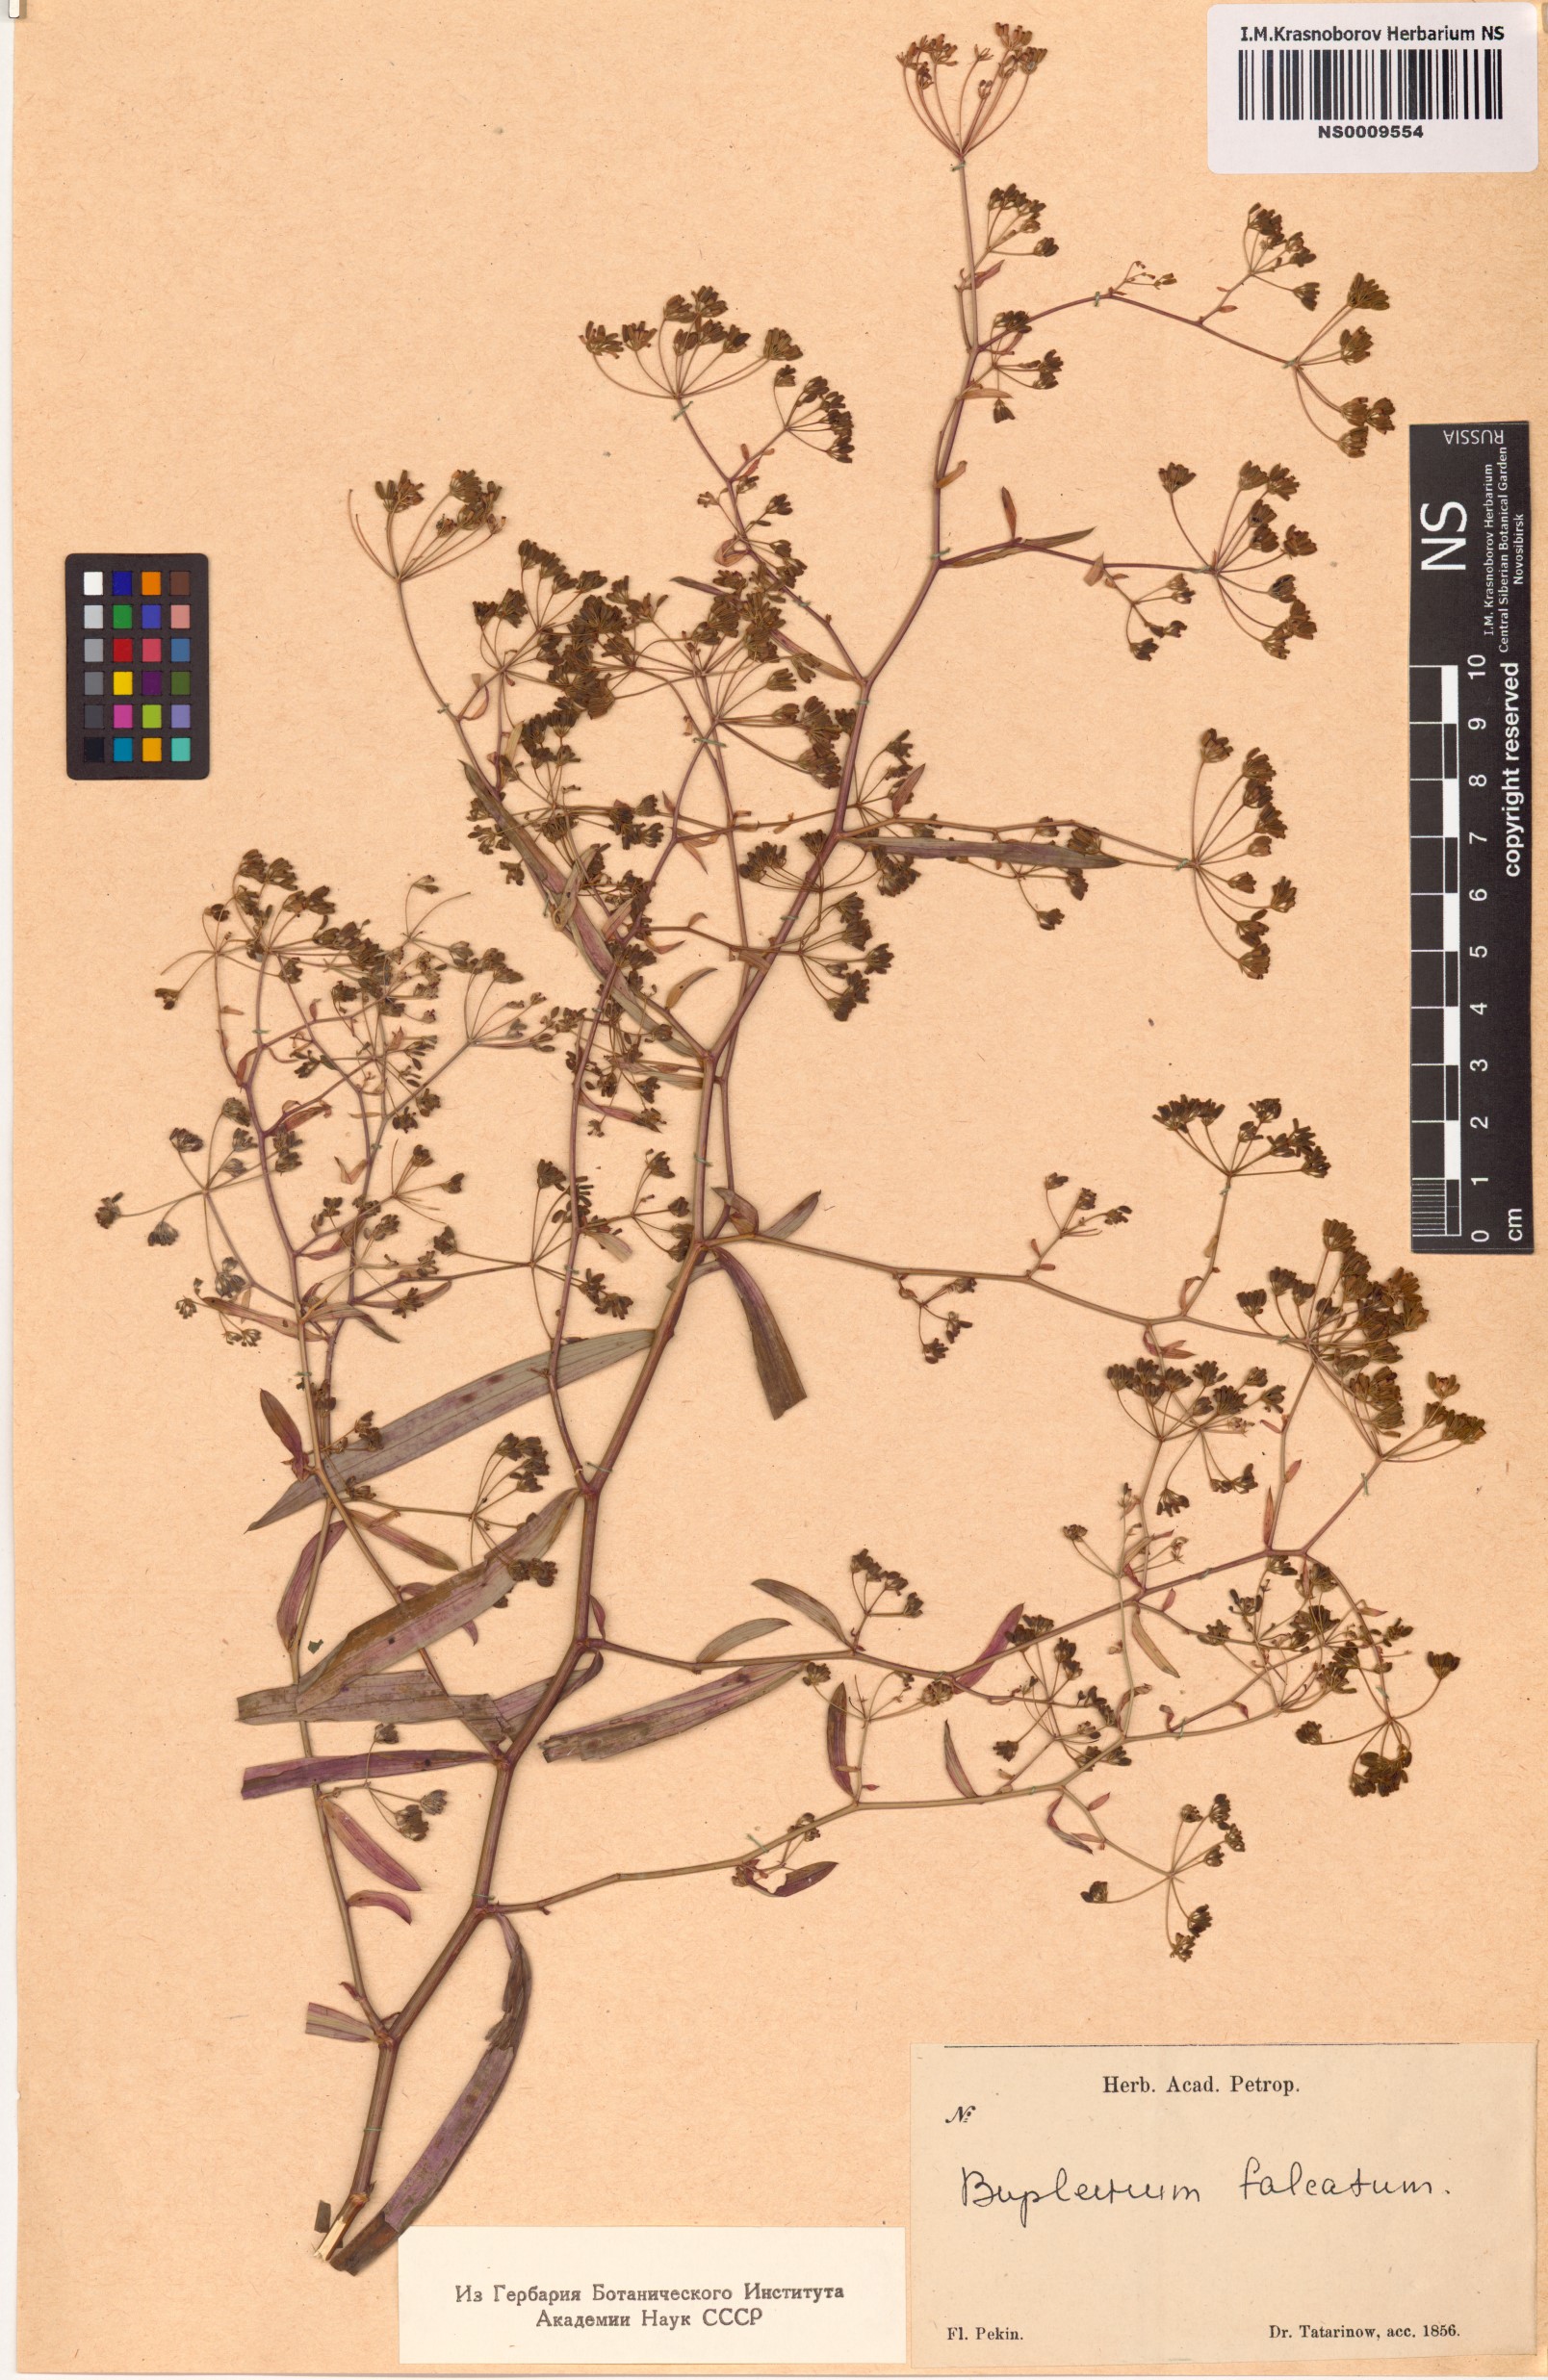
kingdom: Plantae
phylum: Tracheophyta
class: Magnoliopsida
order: Apiales
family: Apiaceae
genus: Bupleurum
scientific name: Bupleurum falcatum
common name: Sickle-leaved hare's-ear
